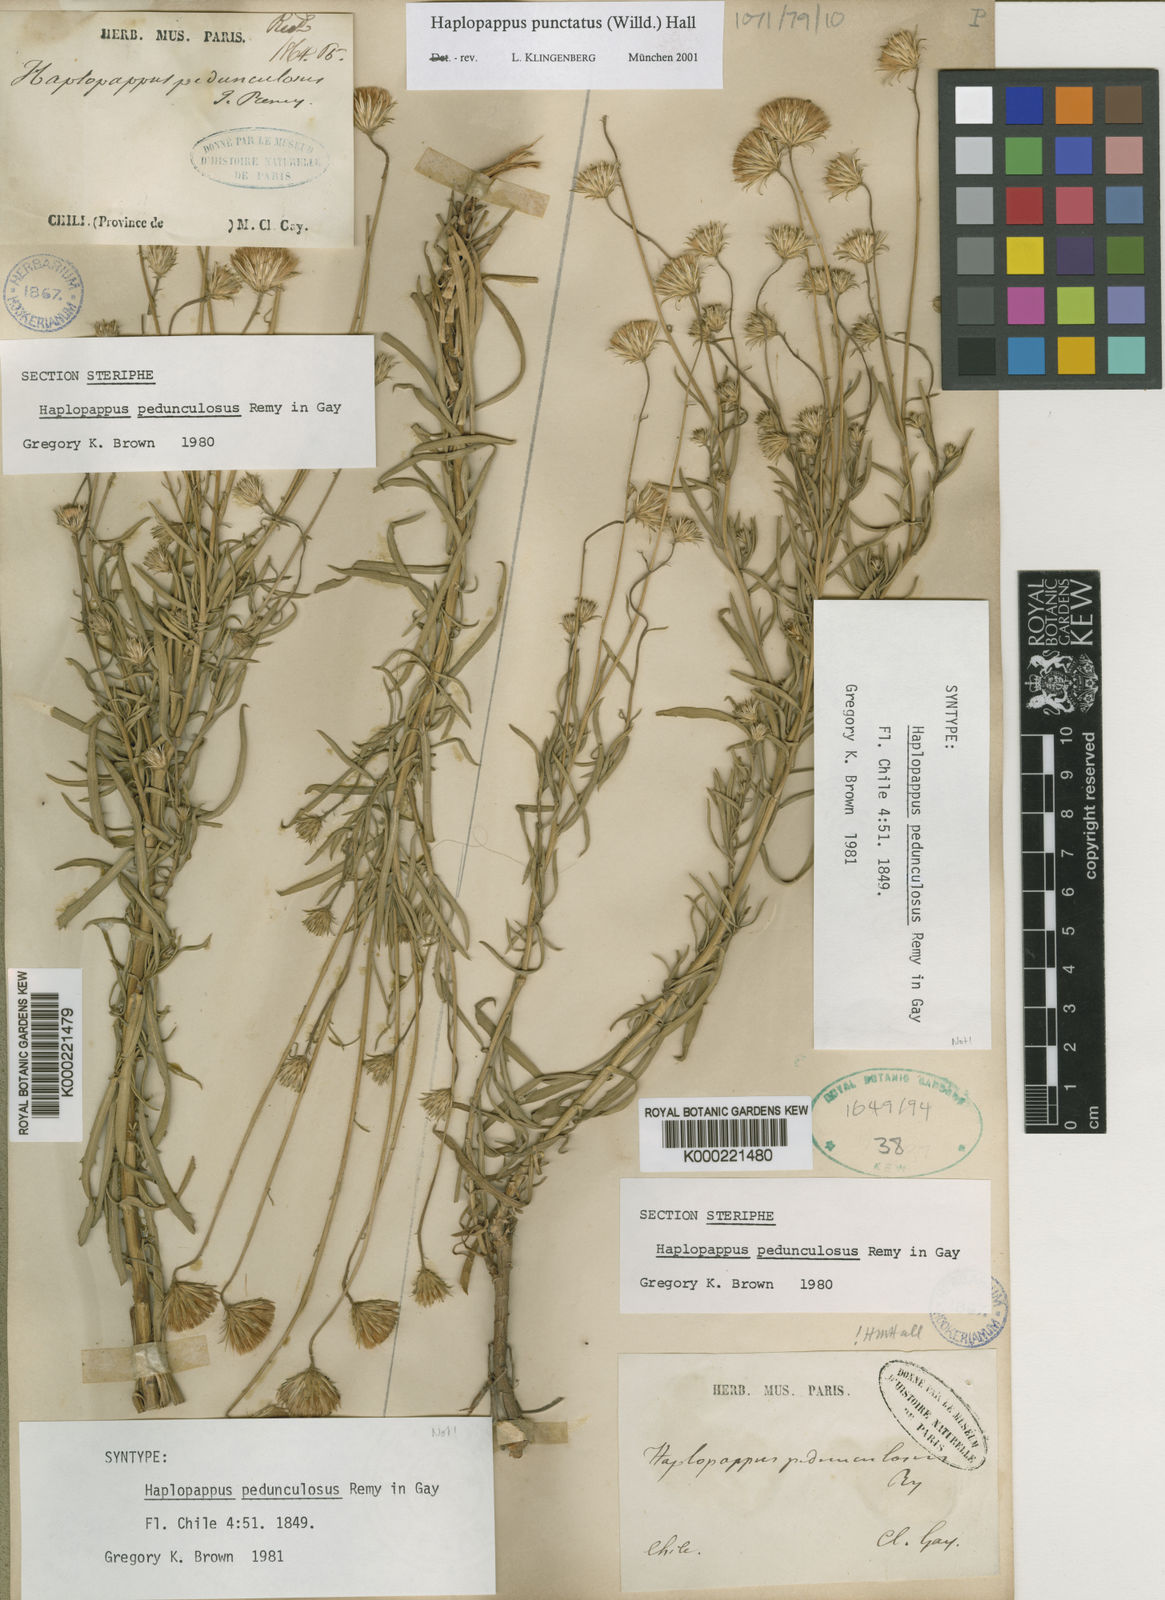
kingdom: Plantae
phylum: Tracheophyta
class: Magnoliopsida
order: Asterales
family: Asteraceae
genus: Haplopappus
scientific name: Haplopappus punctatus
